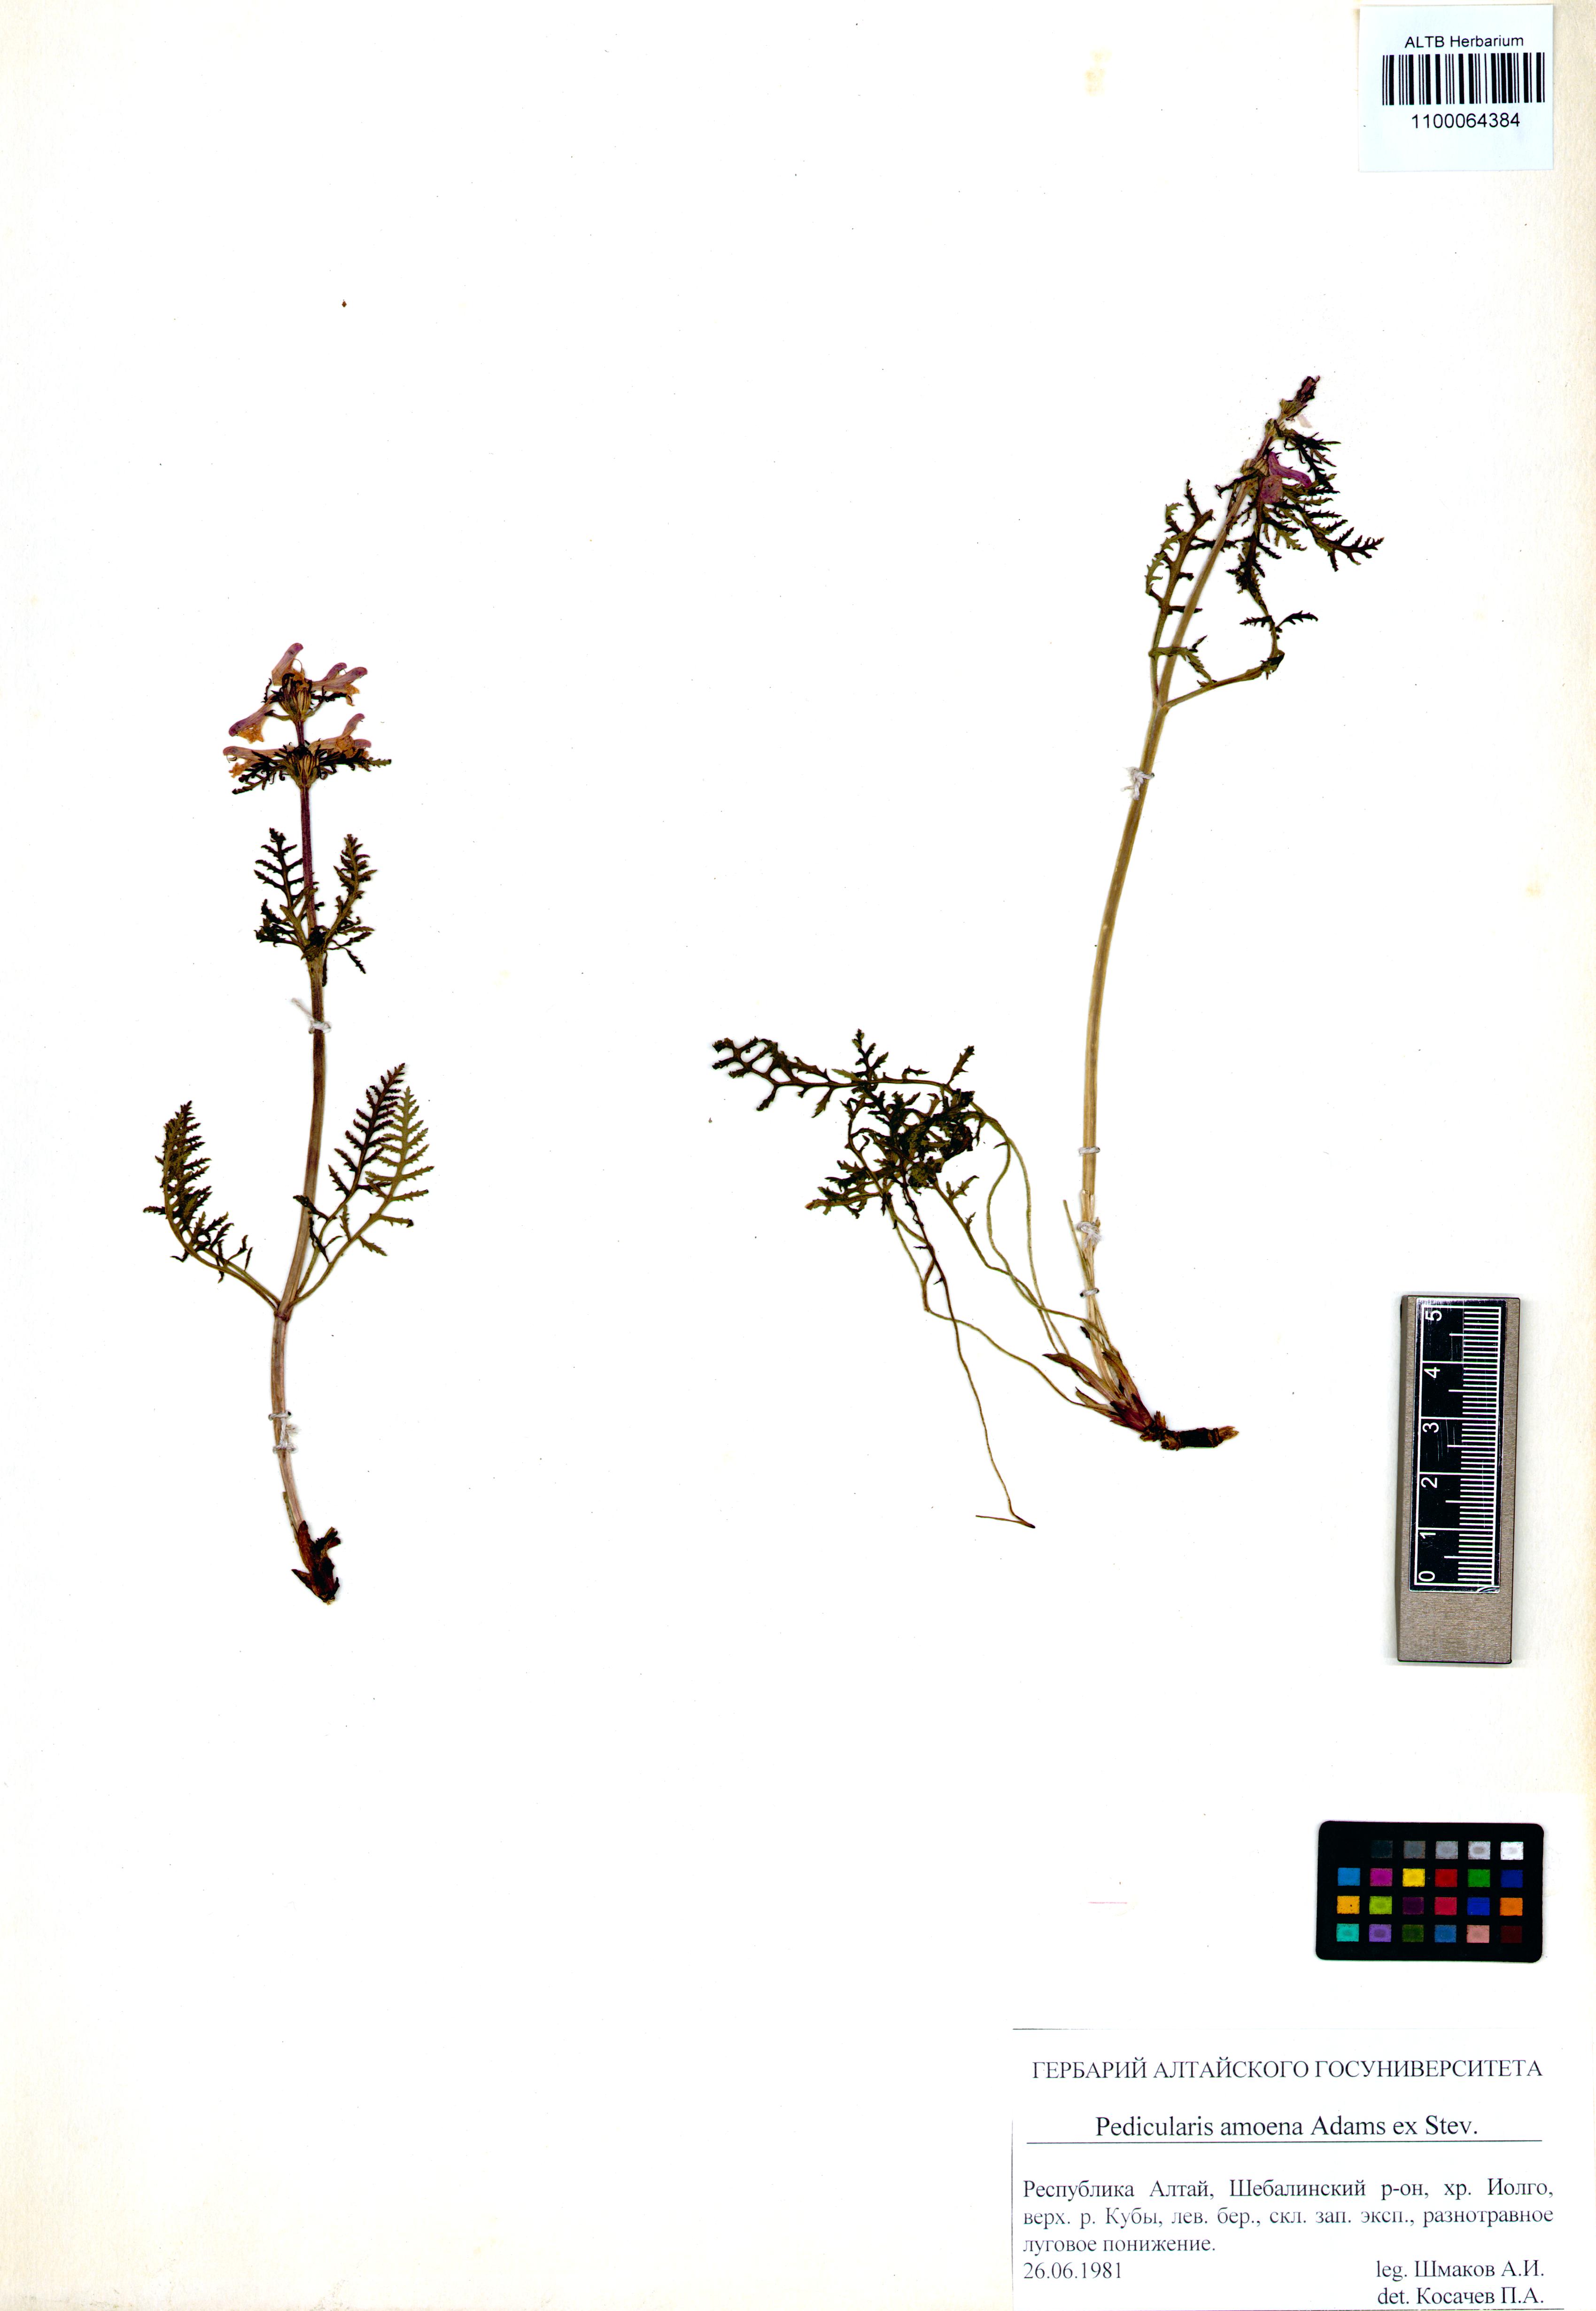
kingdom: Plantae
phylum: Tracheophyta
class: Magnoliopsida
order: Lamiales
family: Orobanchaceae
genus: Pedicularis
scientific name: Pedicularis amoena
